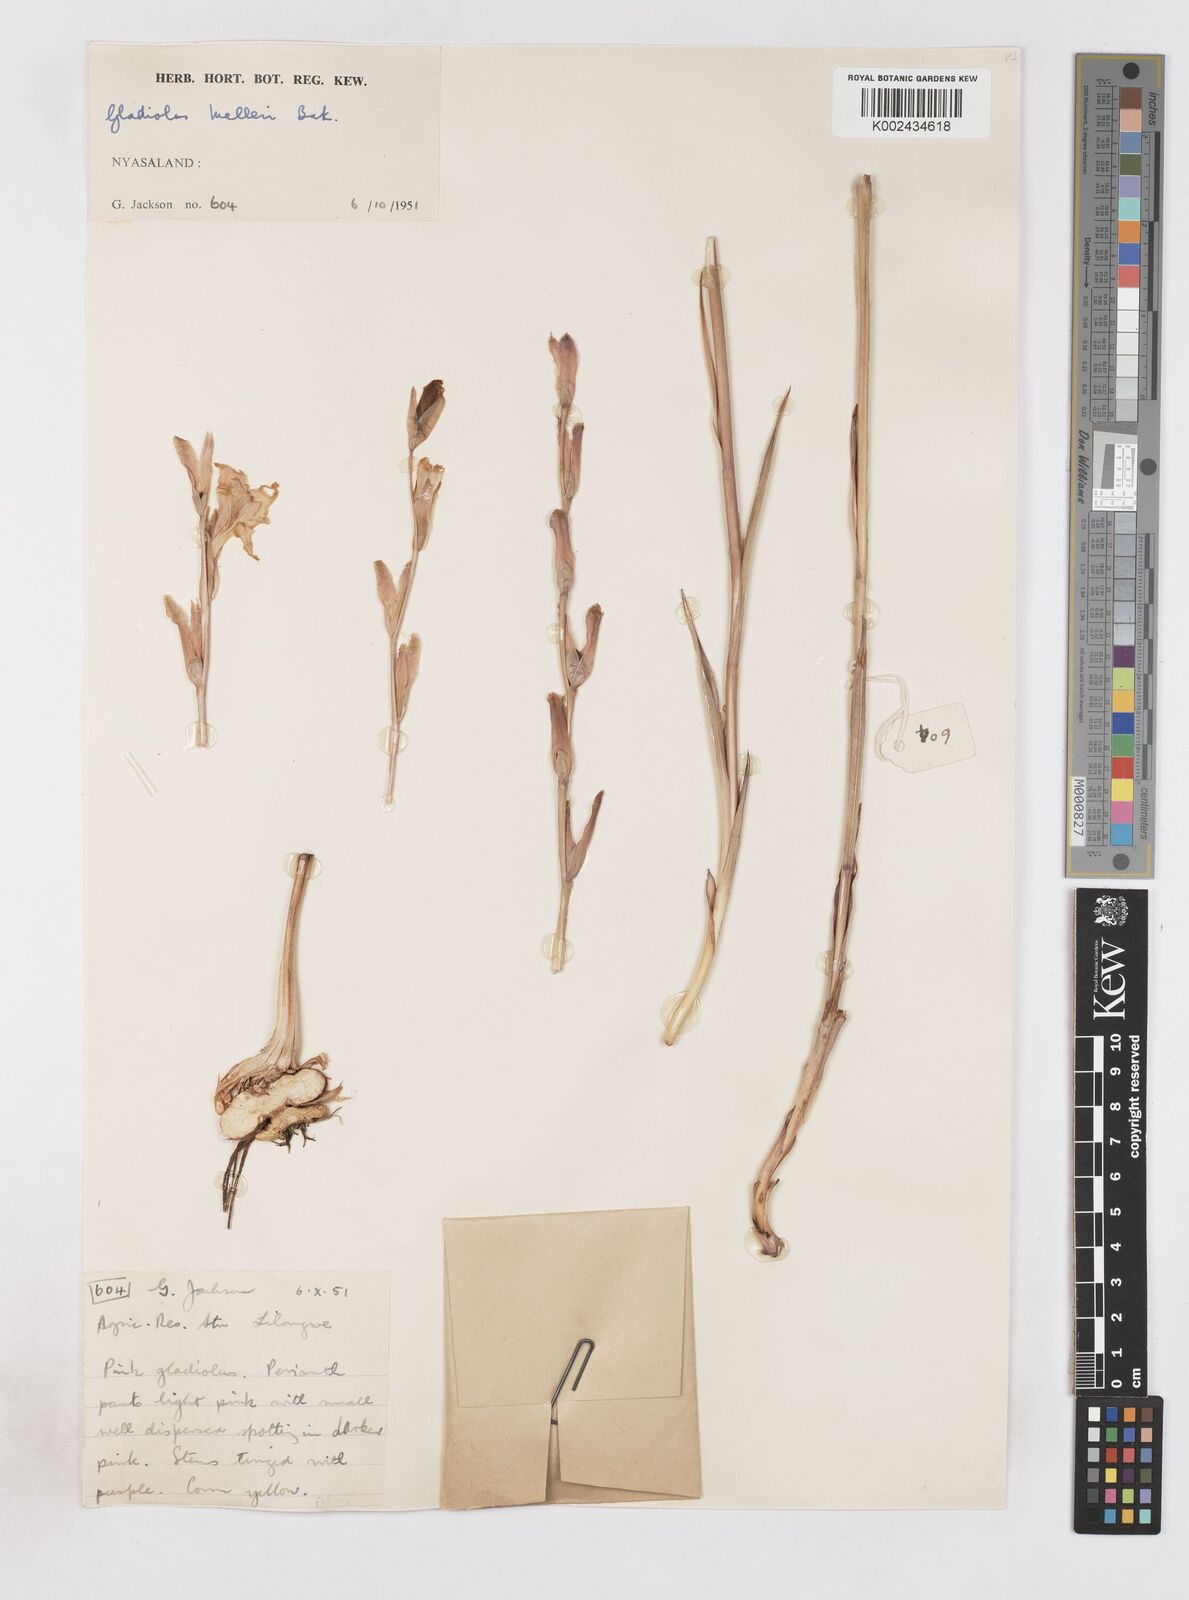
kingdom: Plantae
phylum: Tracheophyta
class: Liliopsida
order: Asparagales
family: Iridaceae
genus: Gladiolus
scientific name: Gladiolus melleri
